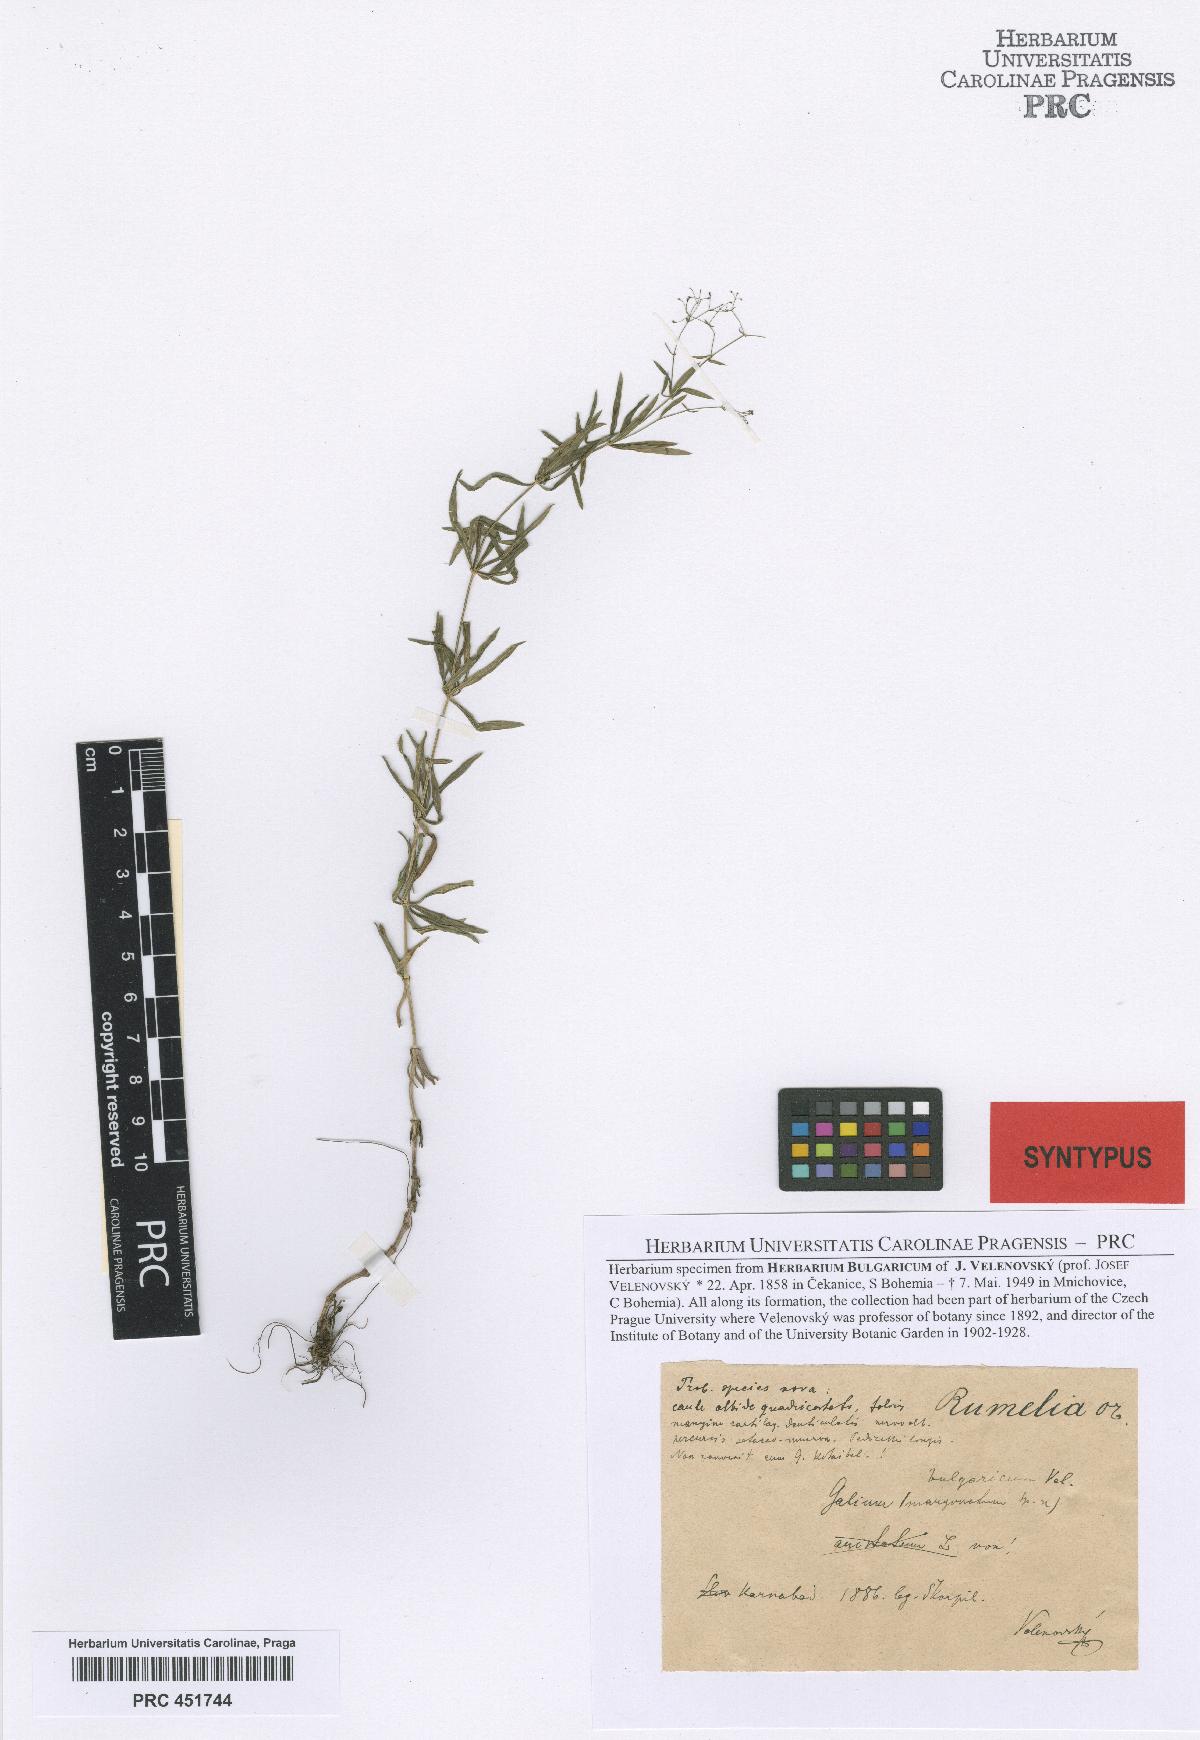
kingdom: Plantae
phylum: Tracheophyta
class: Magnoliopsida
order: Gentianales
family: Rubiaceae
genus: Galium
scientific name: Galium paschale
